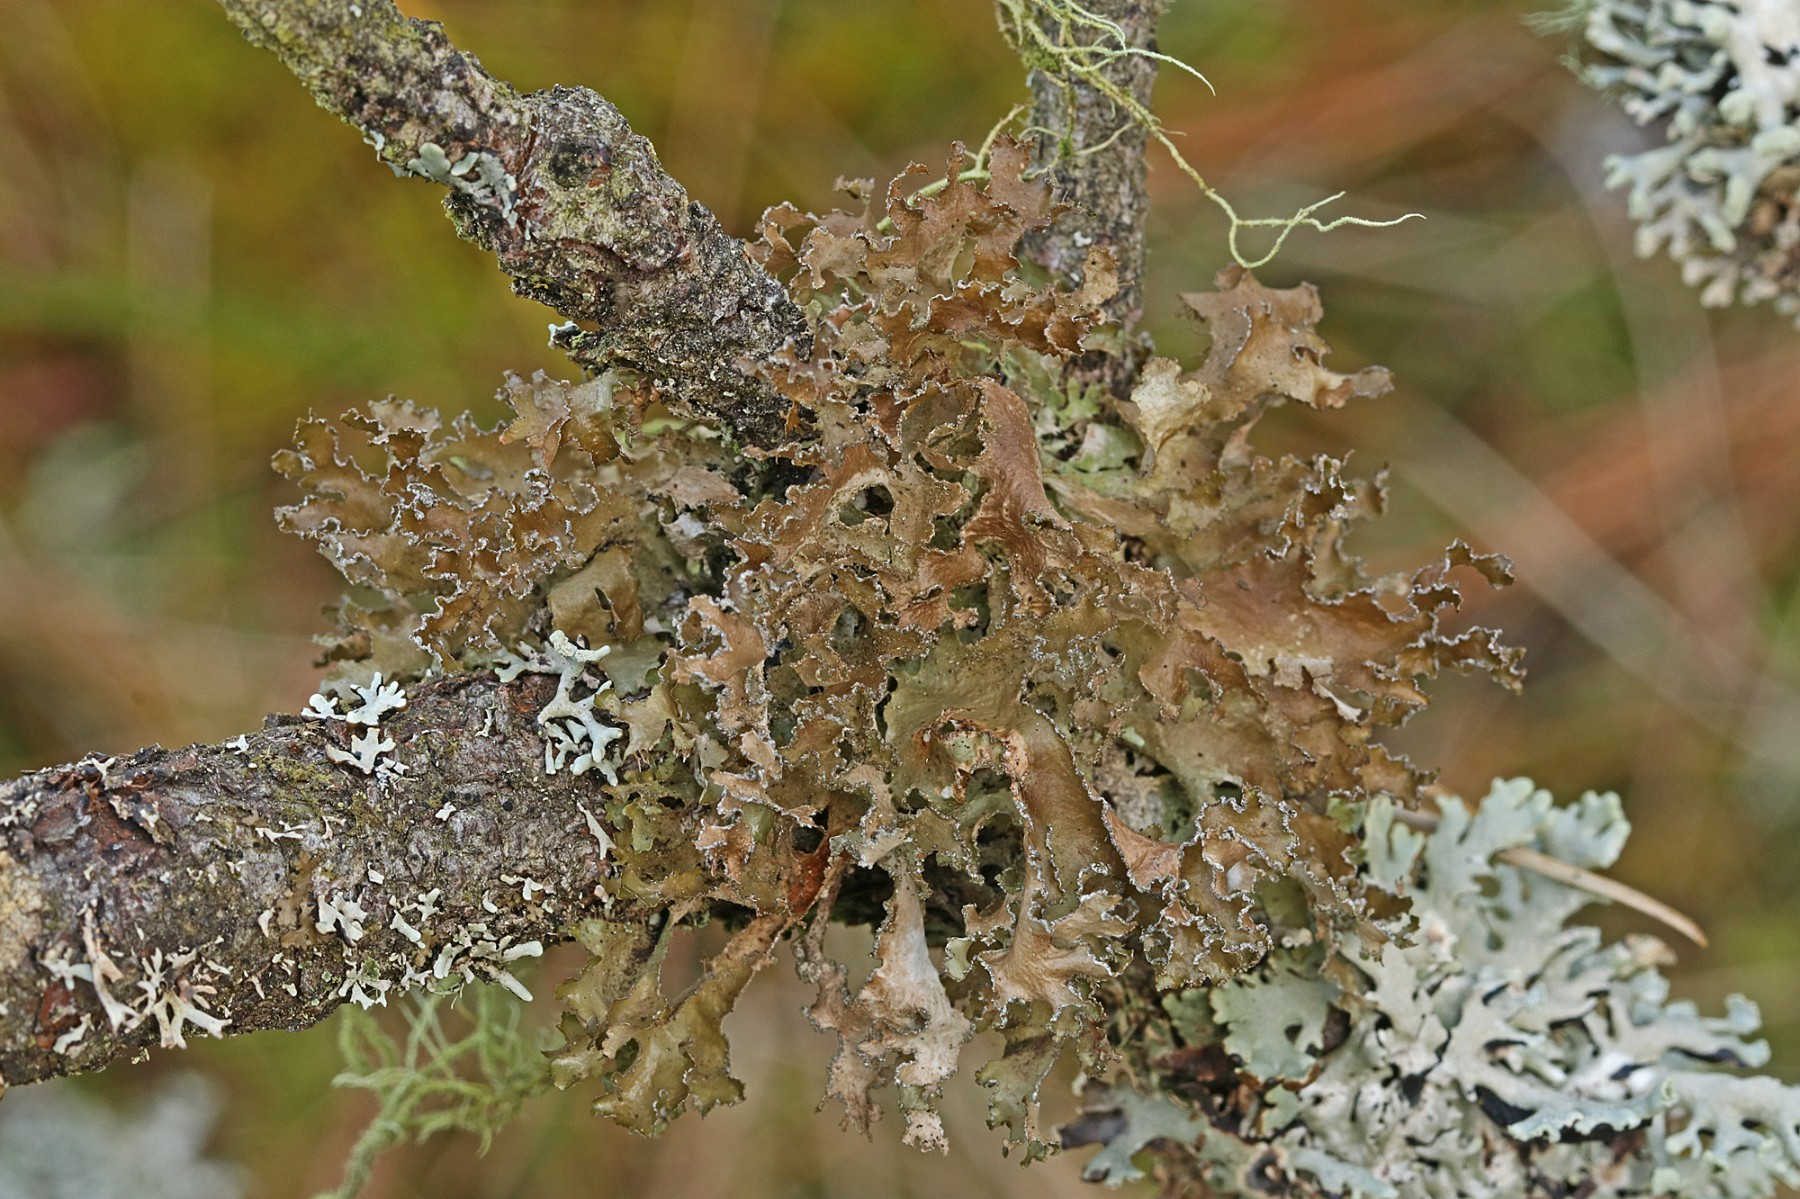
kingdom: Fungi
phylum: Ascomycota
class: Lecanoromycetes
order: Lecanorales
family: Parmeliaceae
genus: Nephromopsis
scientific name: Nephromopsis chlorophylla
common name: olivenbrun kruslav
